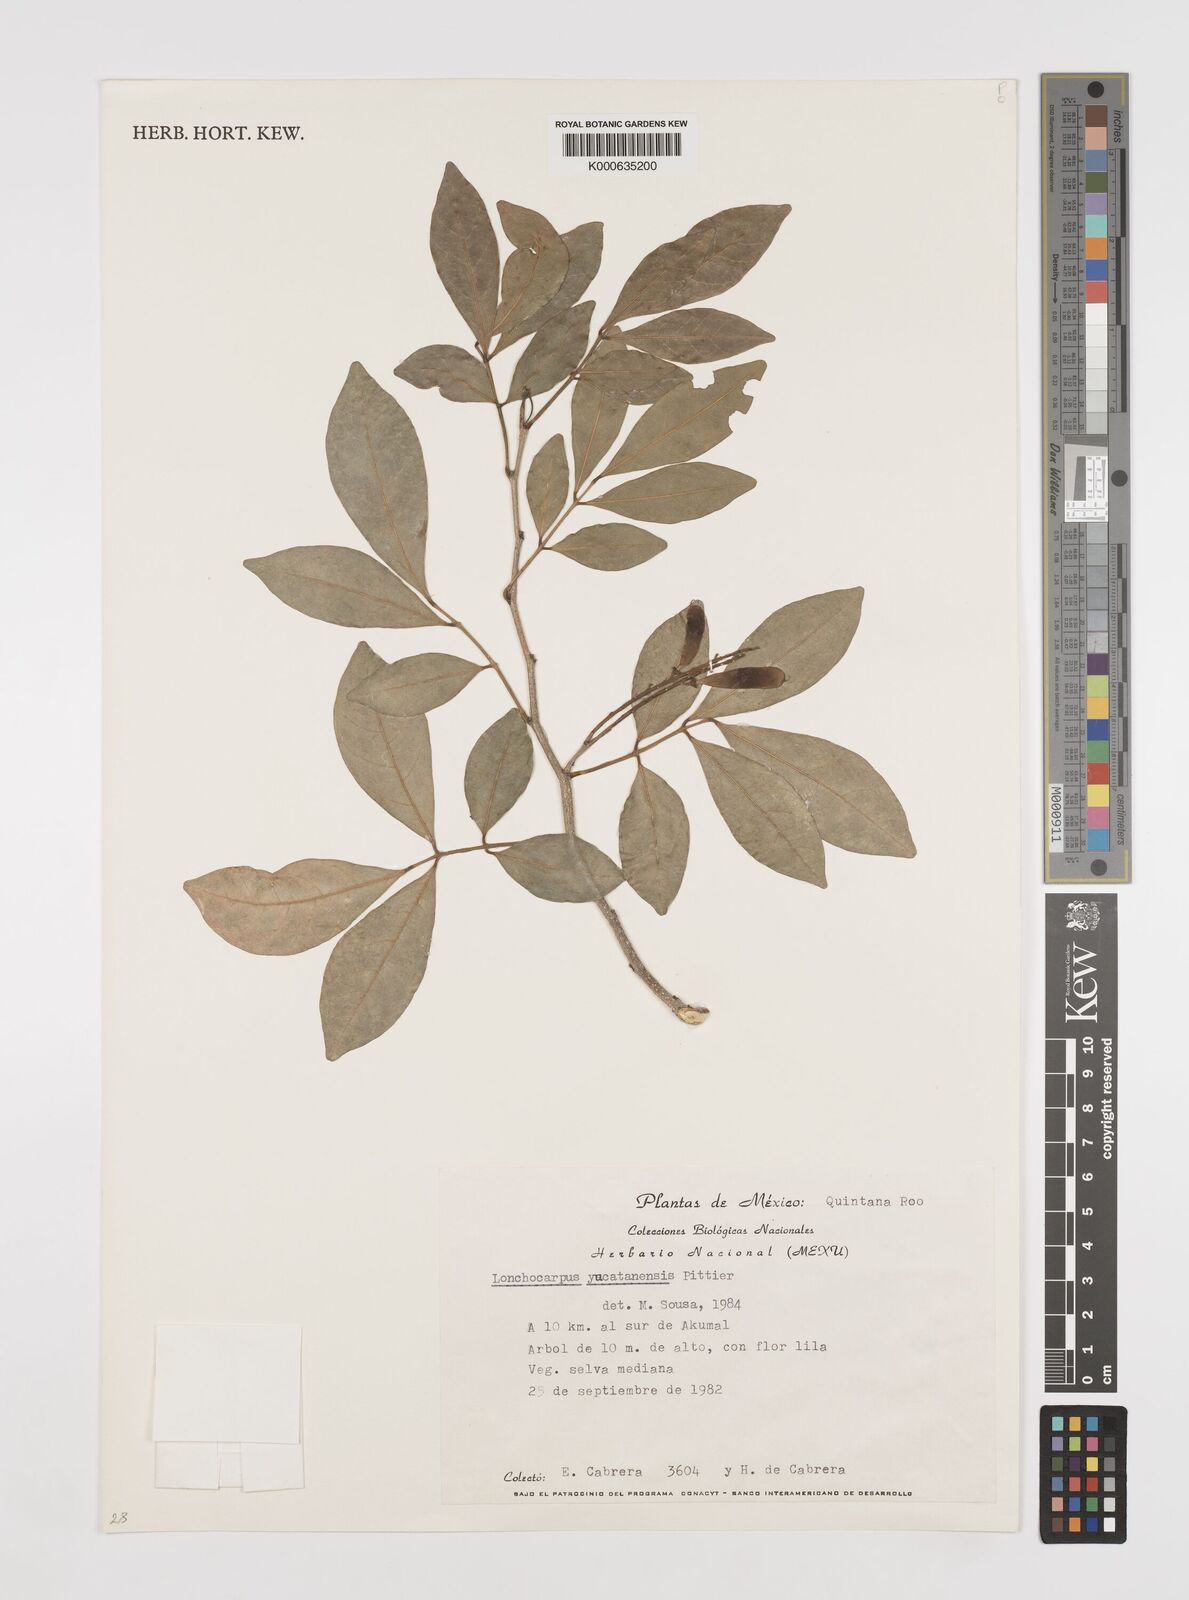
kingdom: Plantae
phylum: Tracheophyta
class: Magnoliopsida
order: Fabales
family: Fabaceae
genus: Lonchocarpus
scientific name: Lonchocarpus yucatanensis
